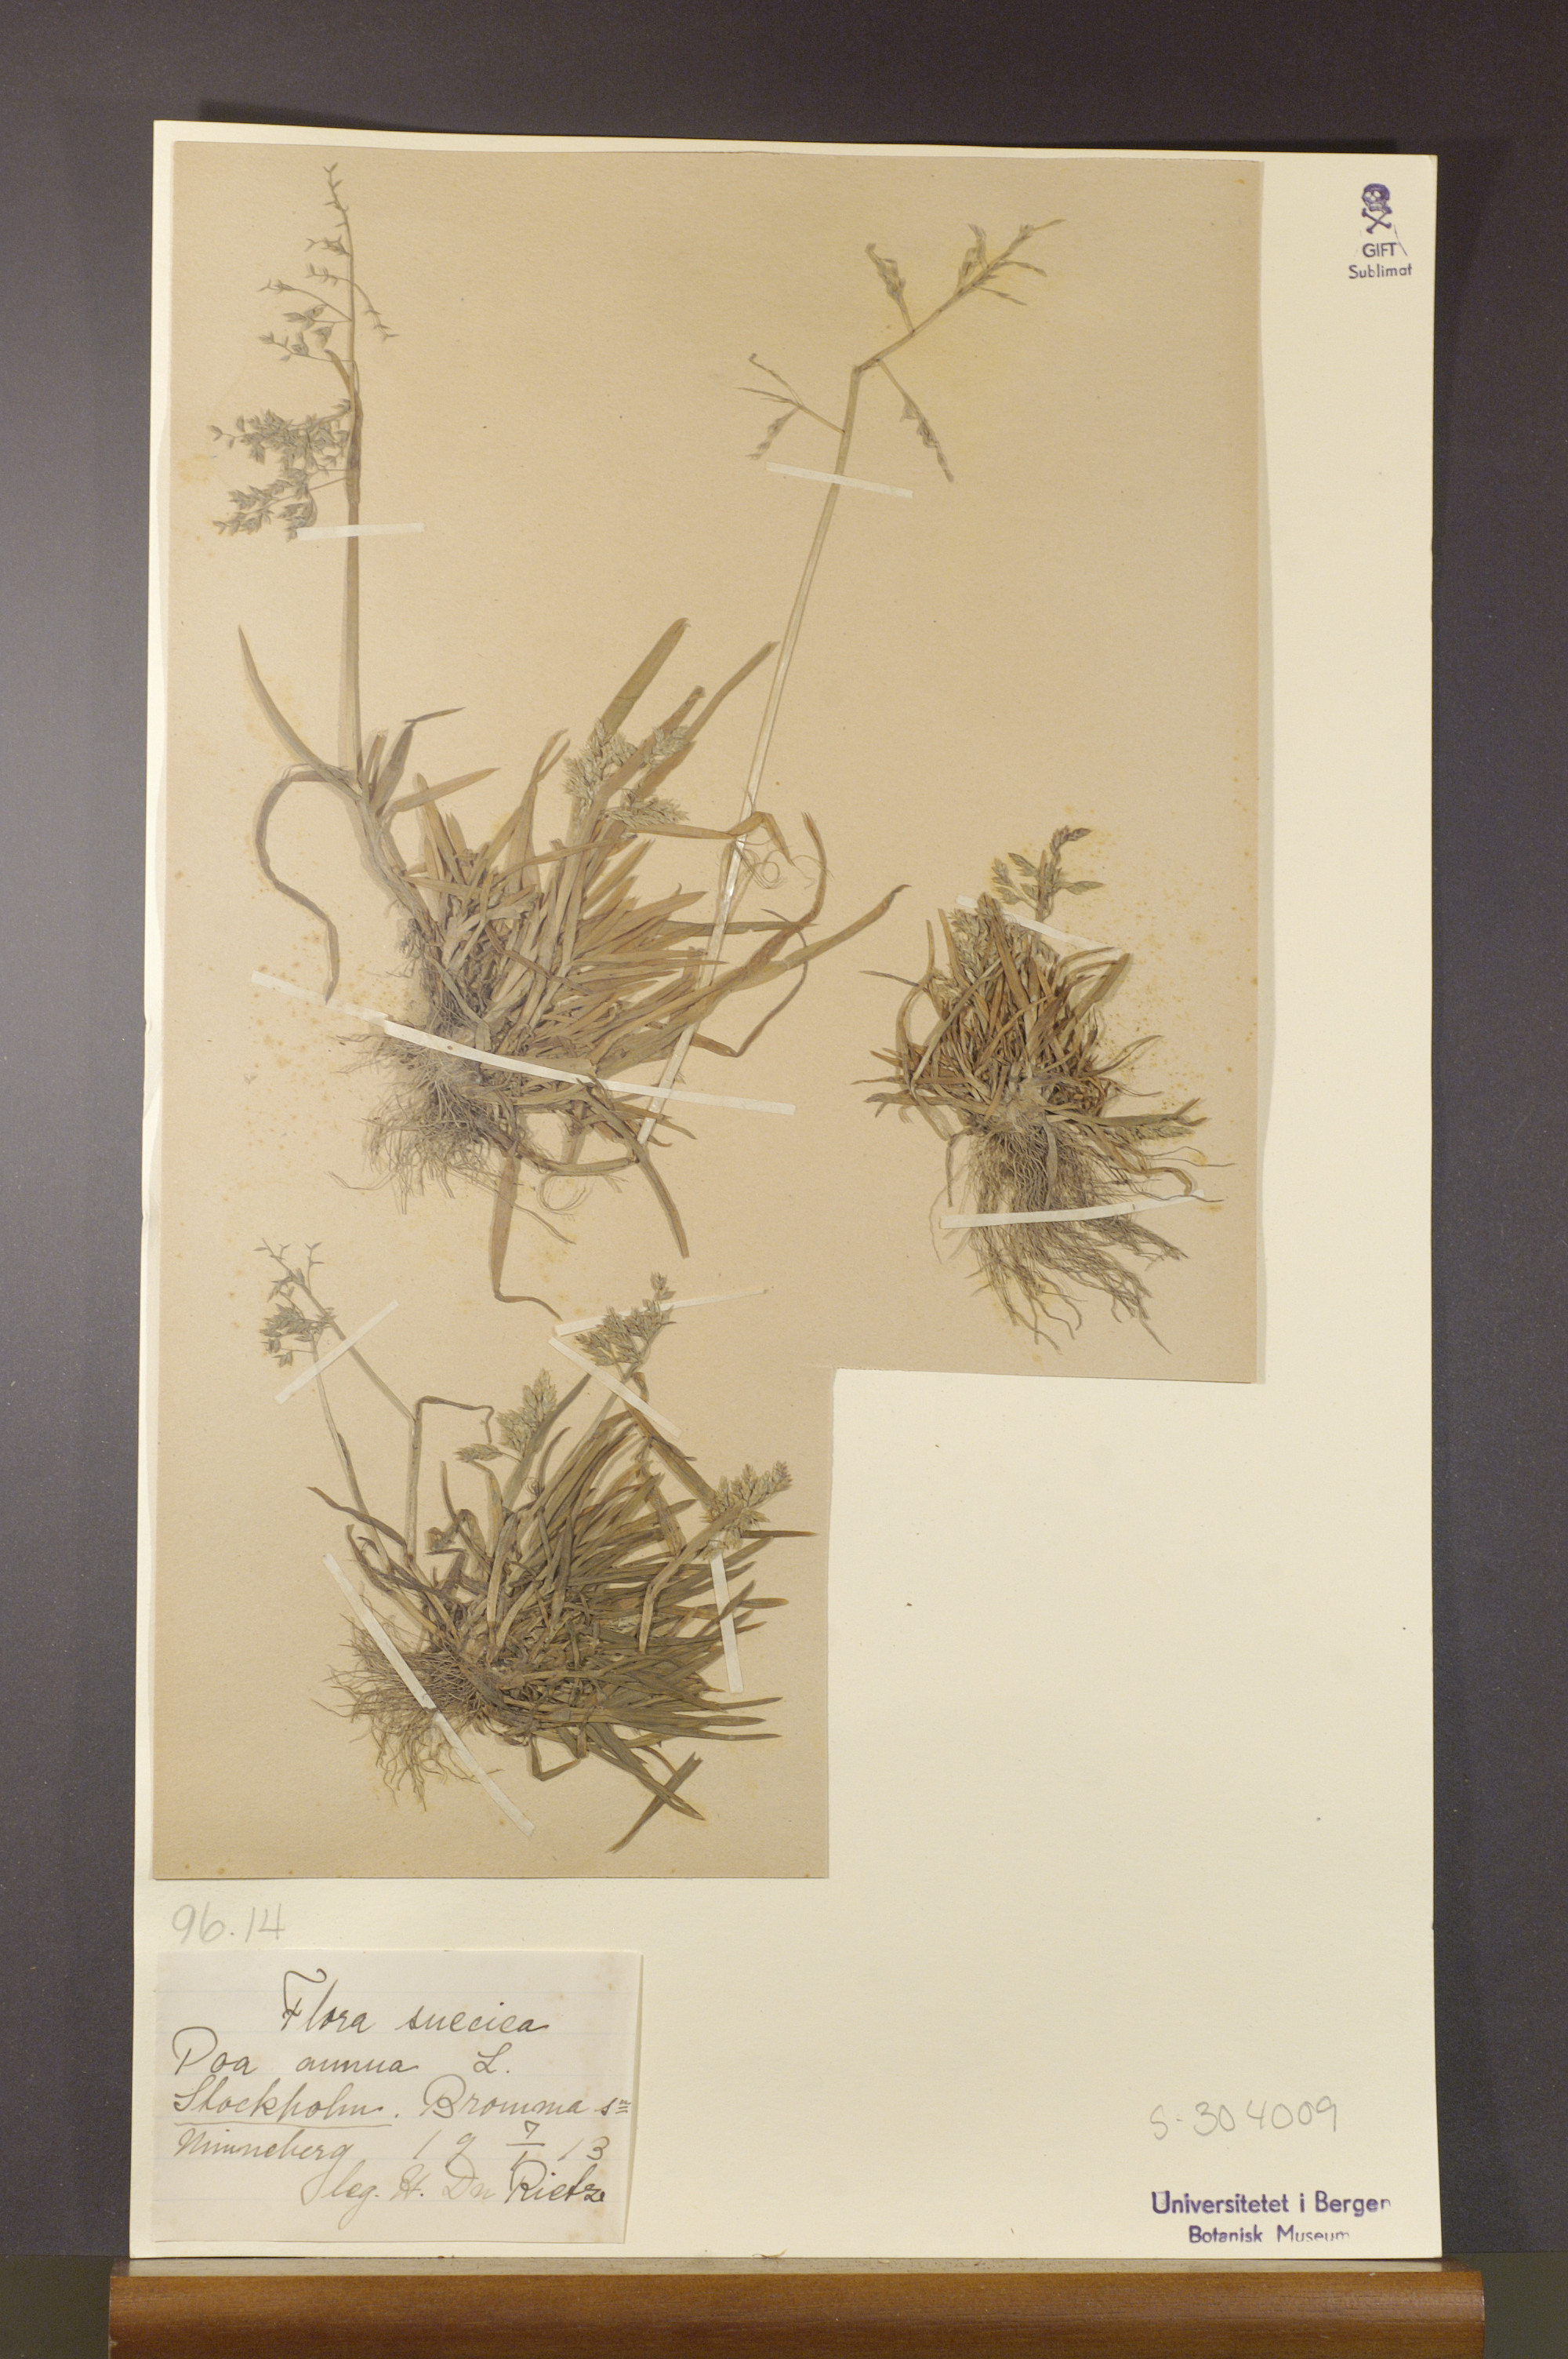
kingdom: Plantae
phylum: Tracheophyta
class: Liliopsida
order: Poales
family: Poaceae
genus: Poa
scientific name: Poa annua
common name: Annual bluegrass
